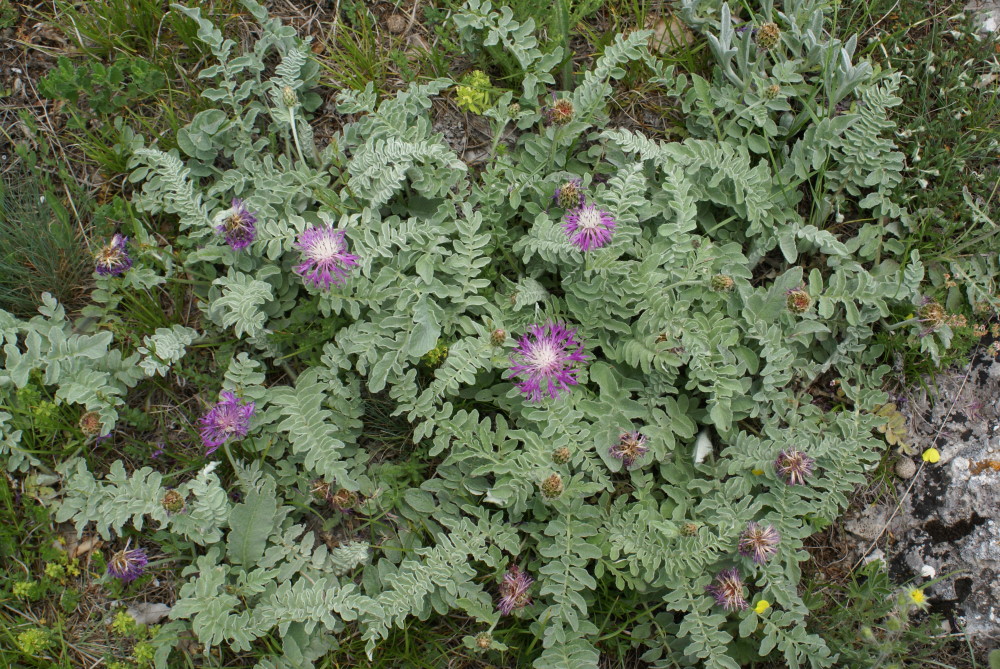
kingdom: Plantae
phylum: Tracheophyta
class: Magnoliopsida
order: Asterales
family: Asteraceae
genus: Psephellus
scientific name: Psephellus declinatus
